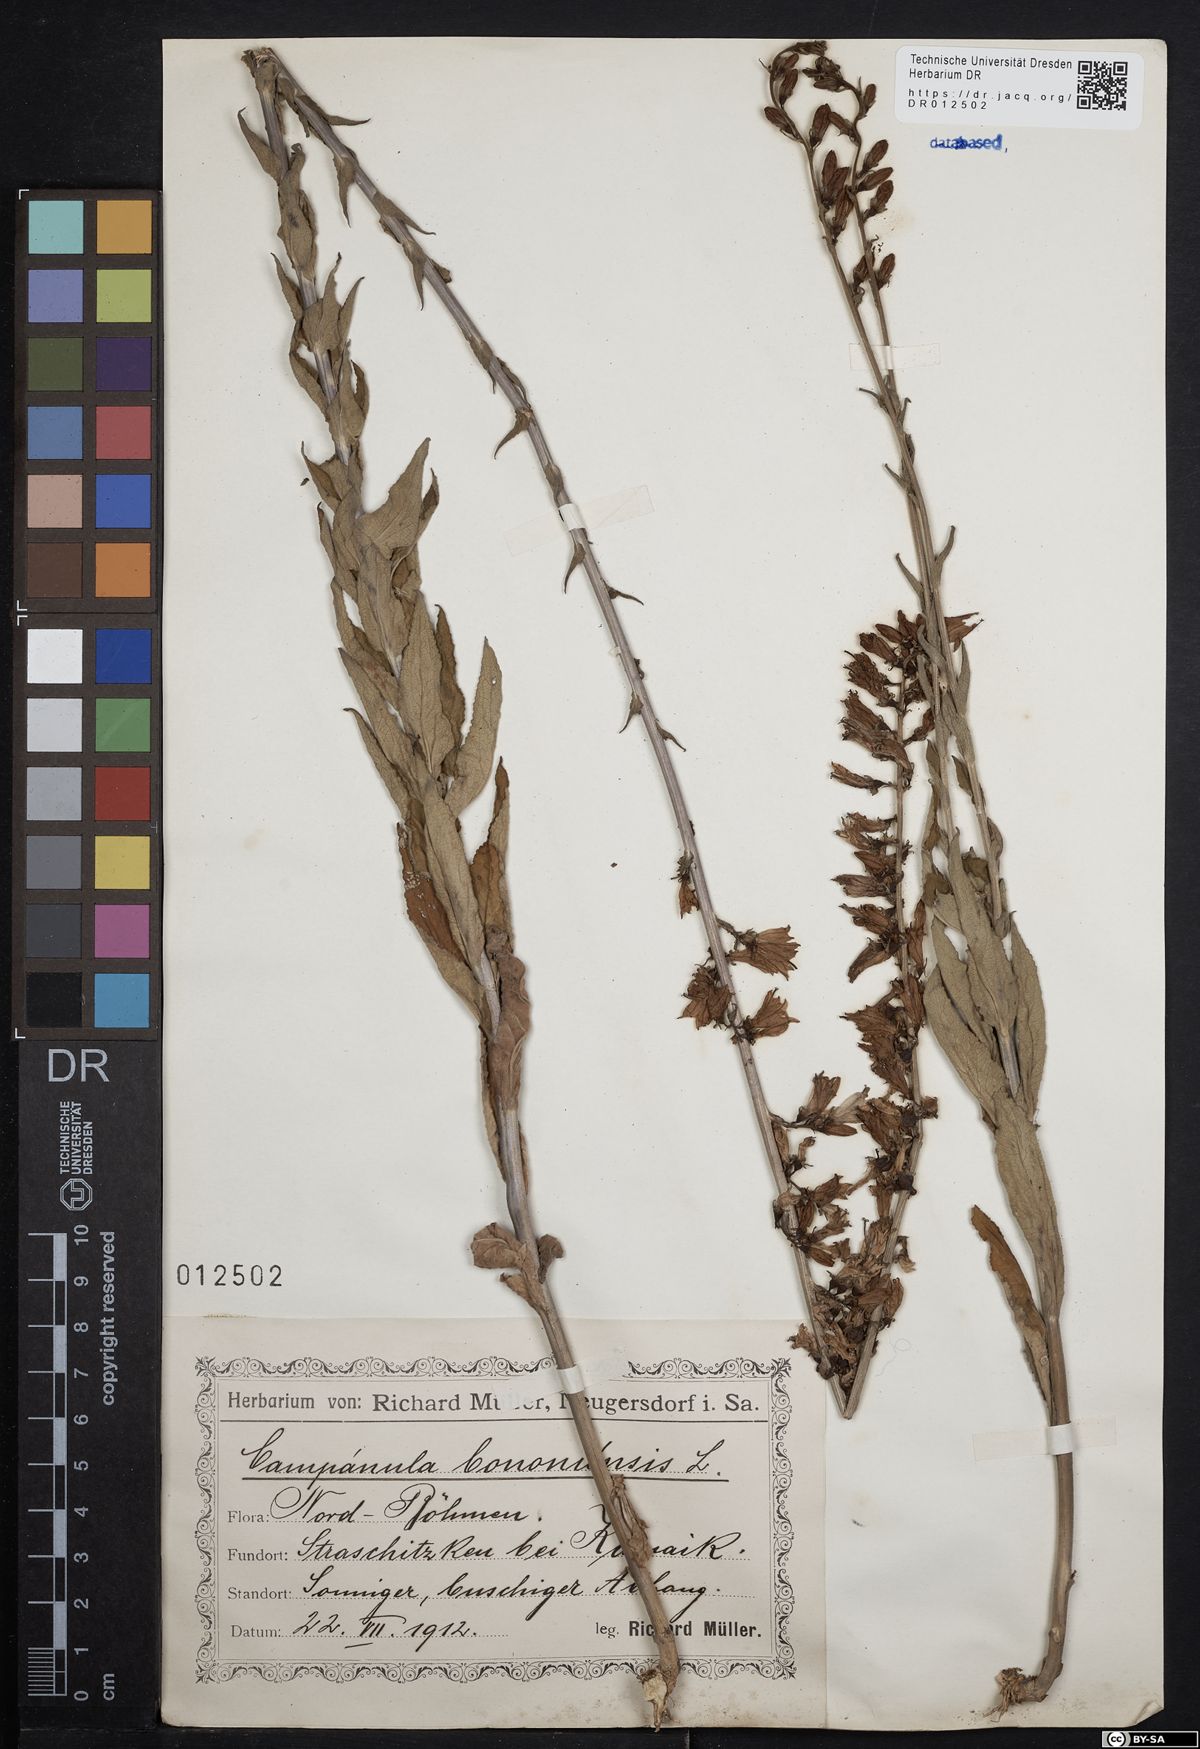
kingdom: Plantae
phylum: Tracheophyta
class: Magnoliopsida
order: Asterales
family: Campanulaceae
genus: Campanula
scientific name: Campanula bononiensis
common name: Pale bellflower
